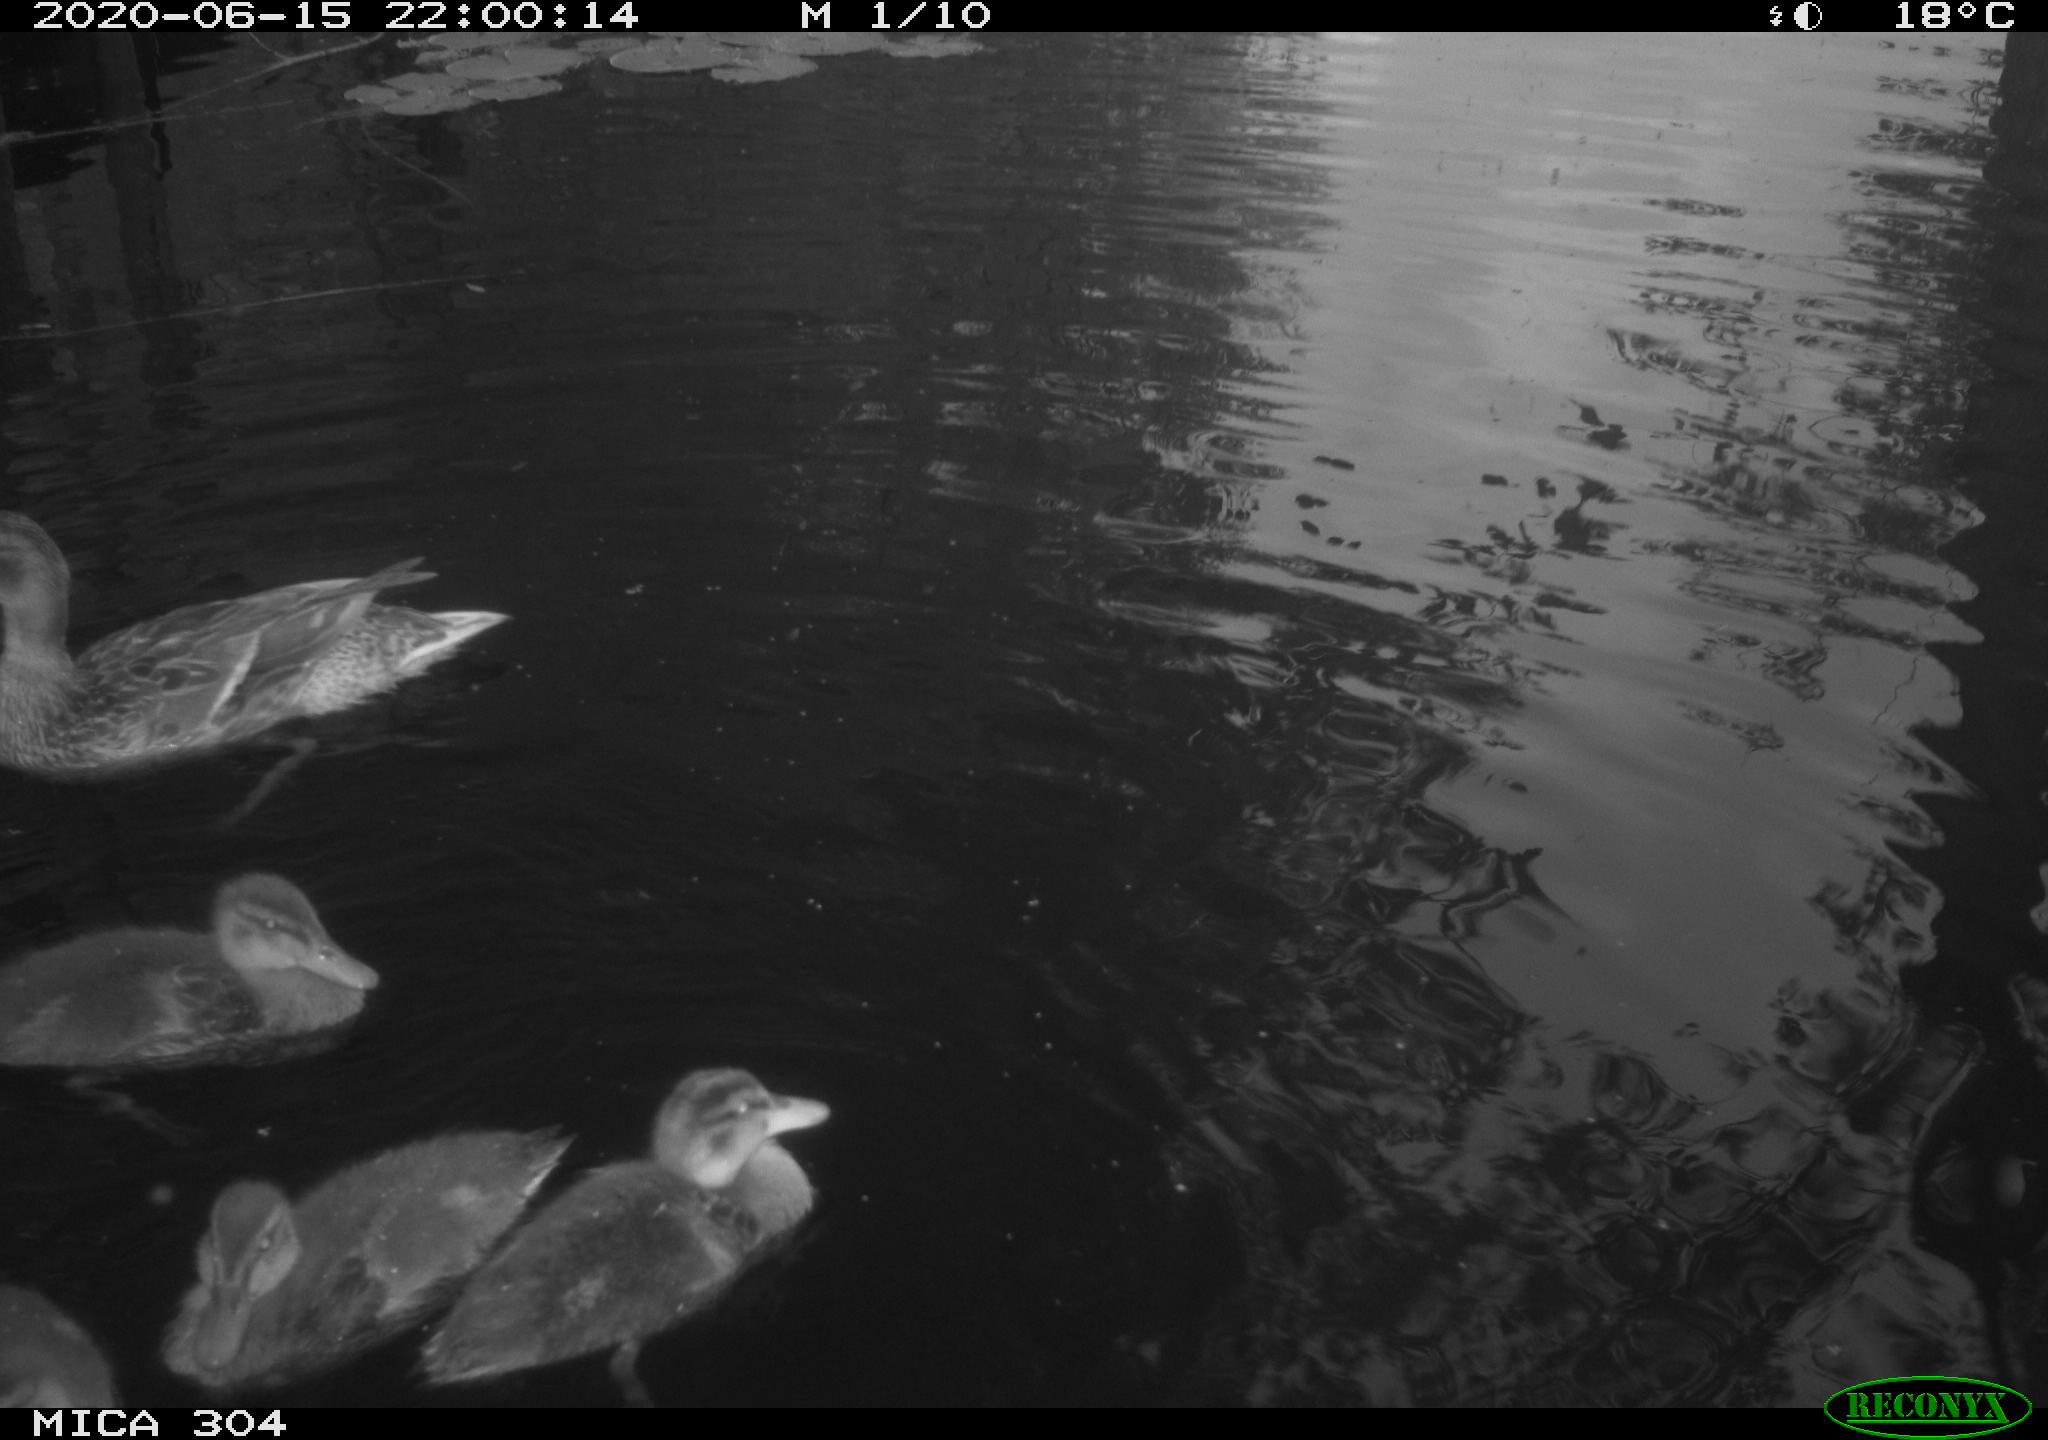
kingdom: Animalia
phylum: Chordata
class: Aves
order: Anseriformes
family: Anatidae
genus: Anas
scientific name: Anas platyrhynchos
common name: Mallard
